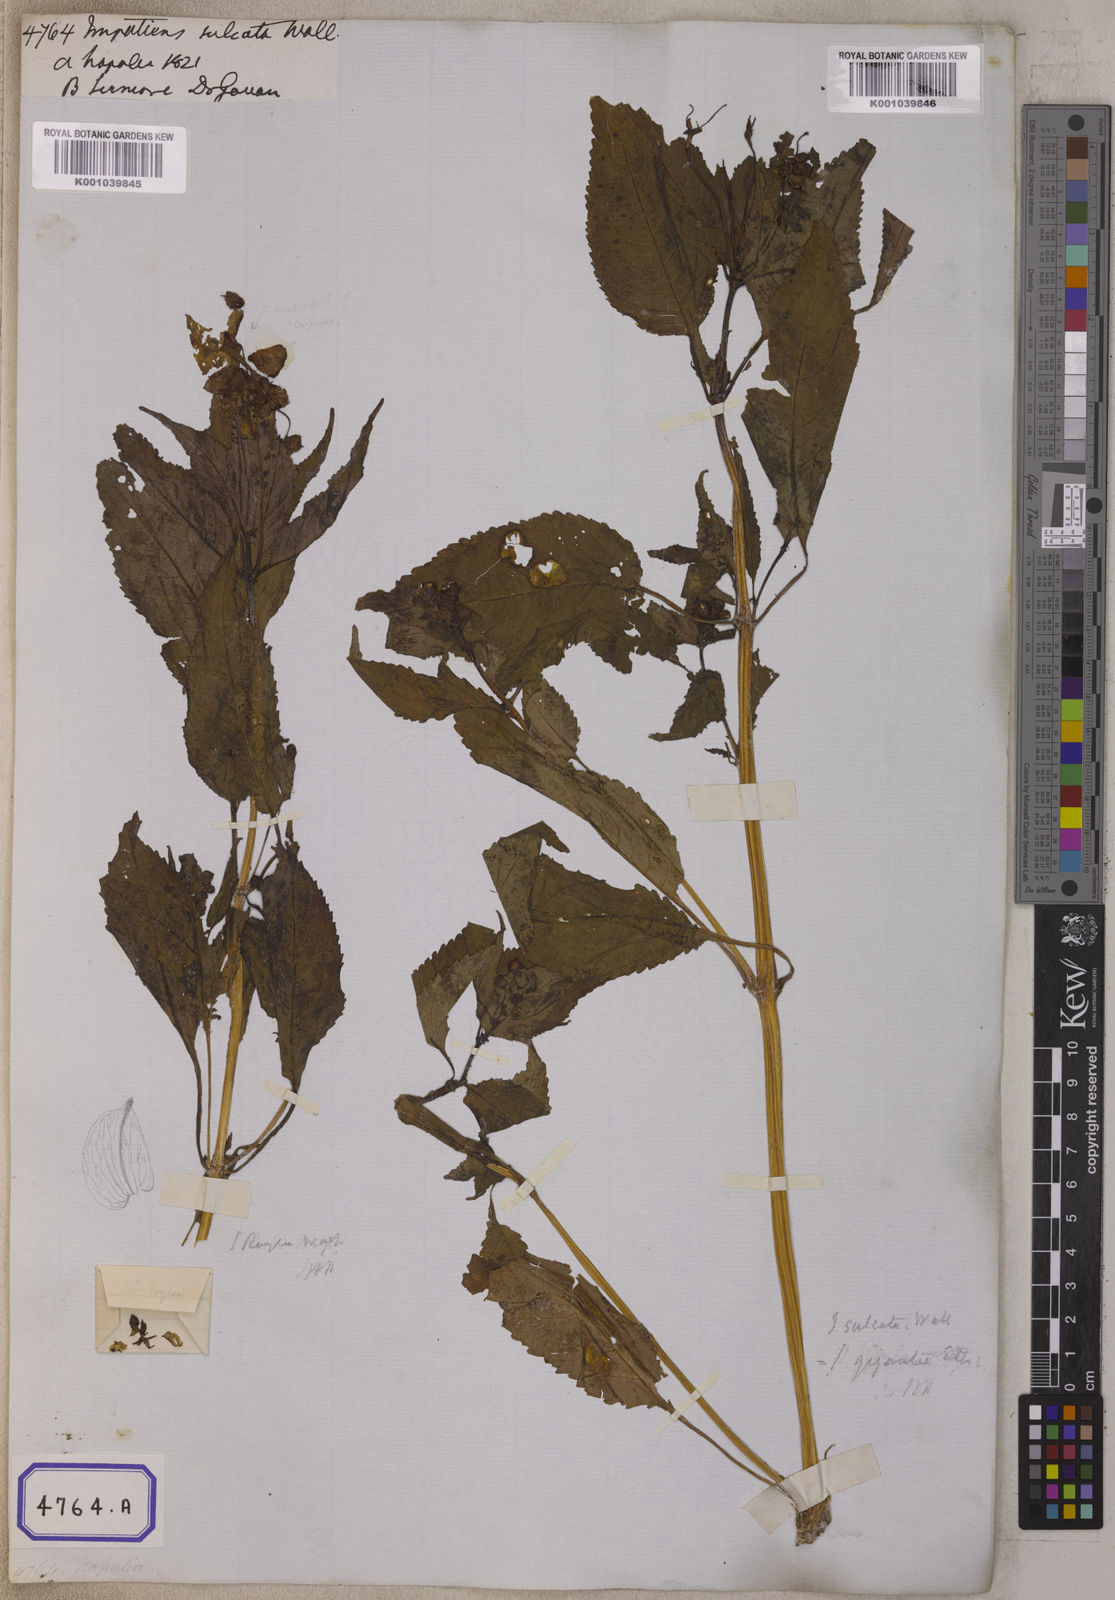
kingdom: Plantae
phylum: Tracheophyta
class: Magnoliopsida
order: Ericales
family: Balsaminaceae
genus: Impatiens
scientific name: Impatiens sulcata
